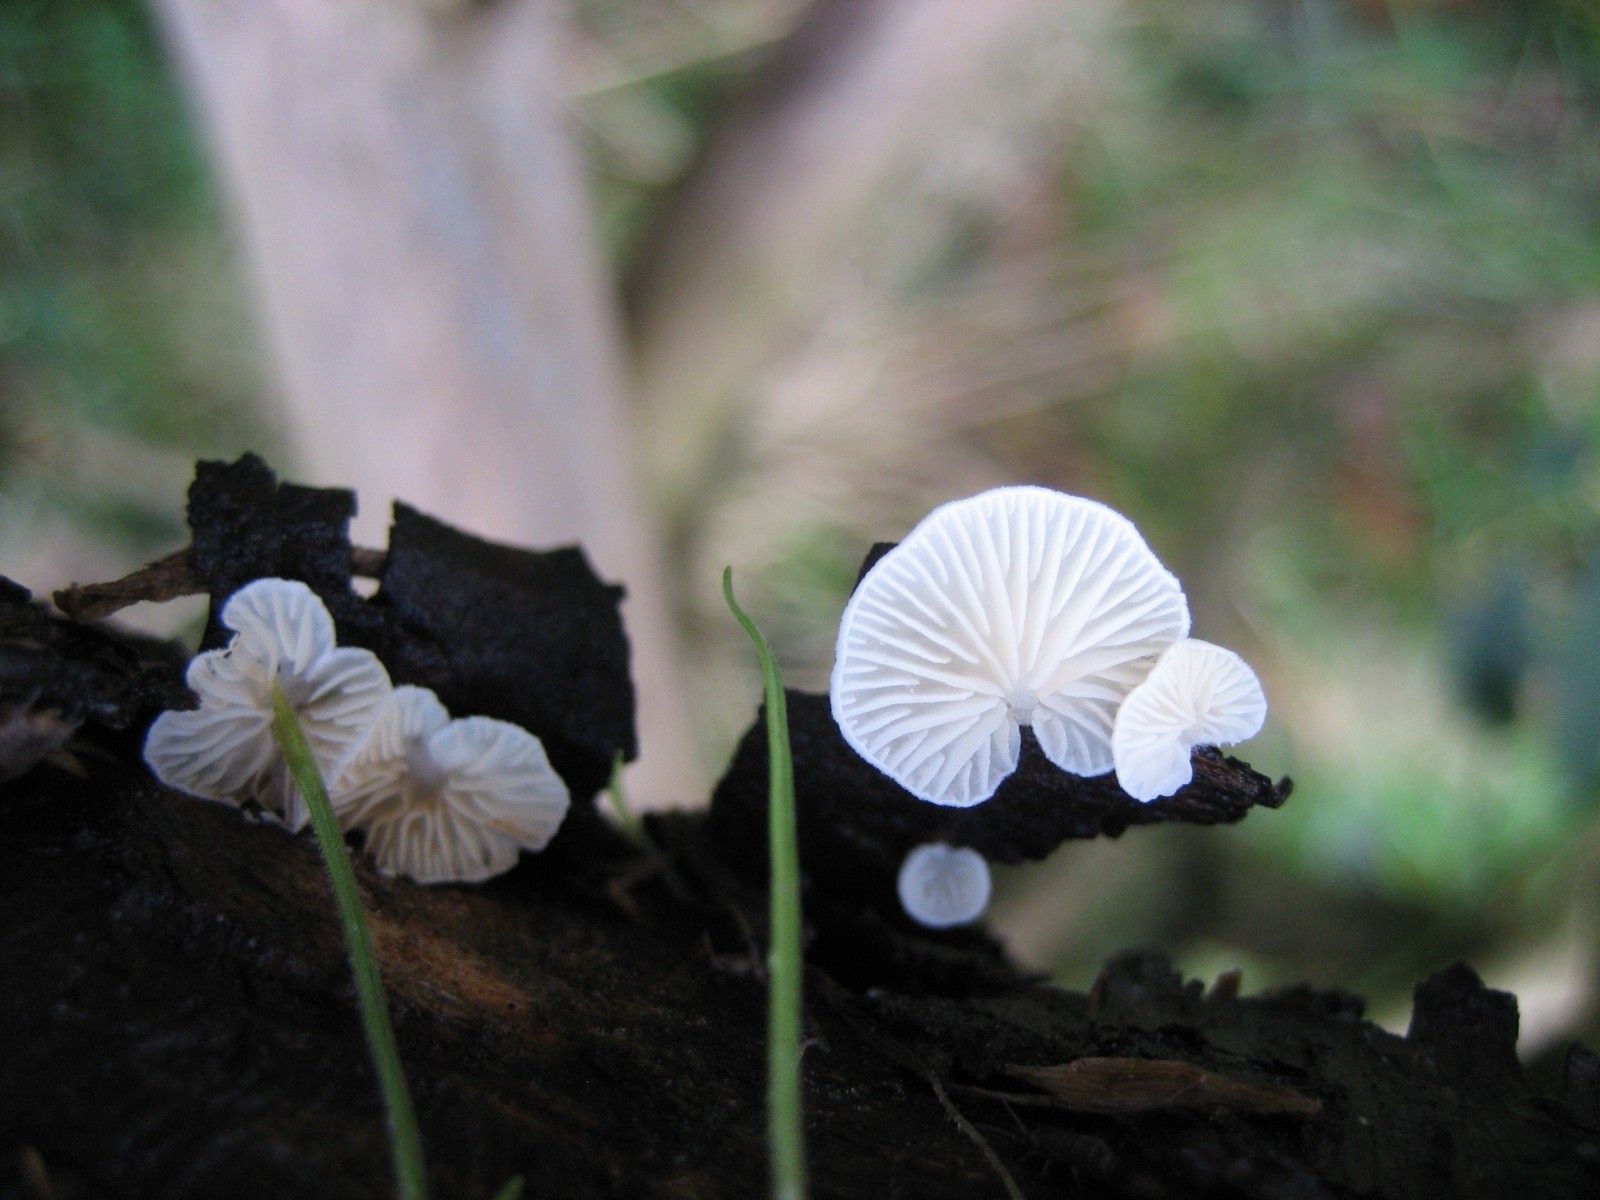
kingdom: Fungi
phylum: Basidiomycota
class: Agaricomycetes
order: Agaricales
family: Crepidotaceae
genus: Crepidotus
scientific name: Crepidotus
